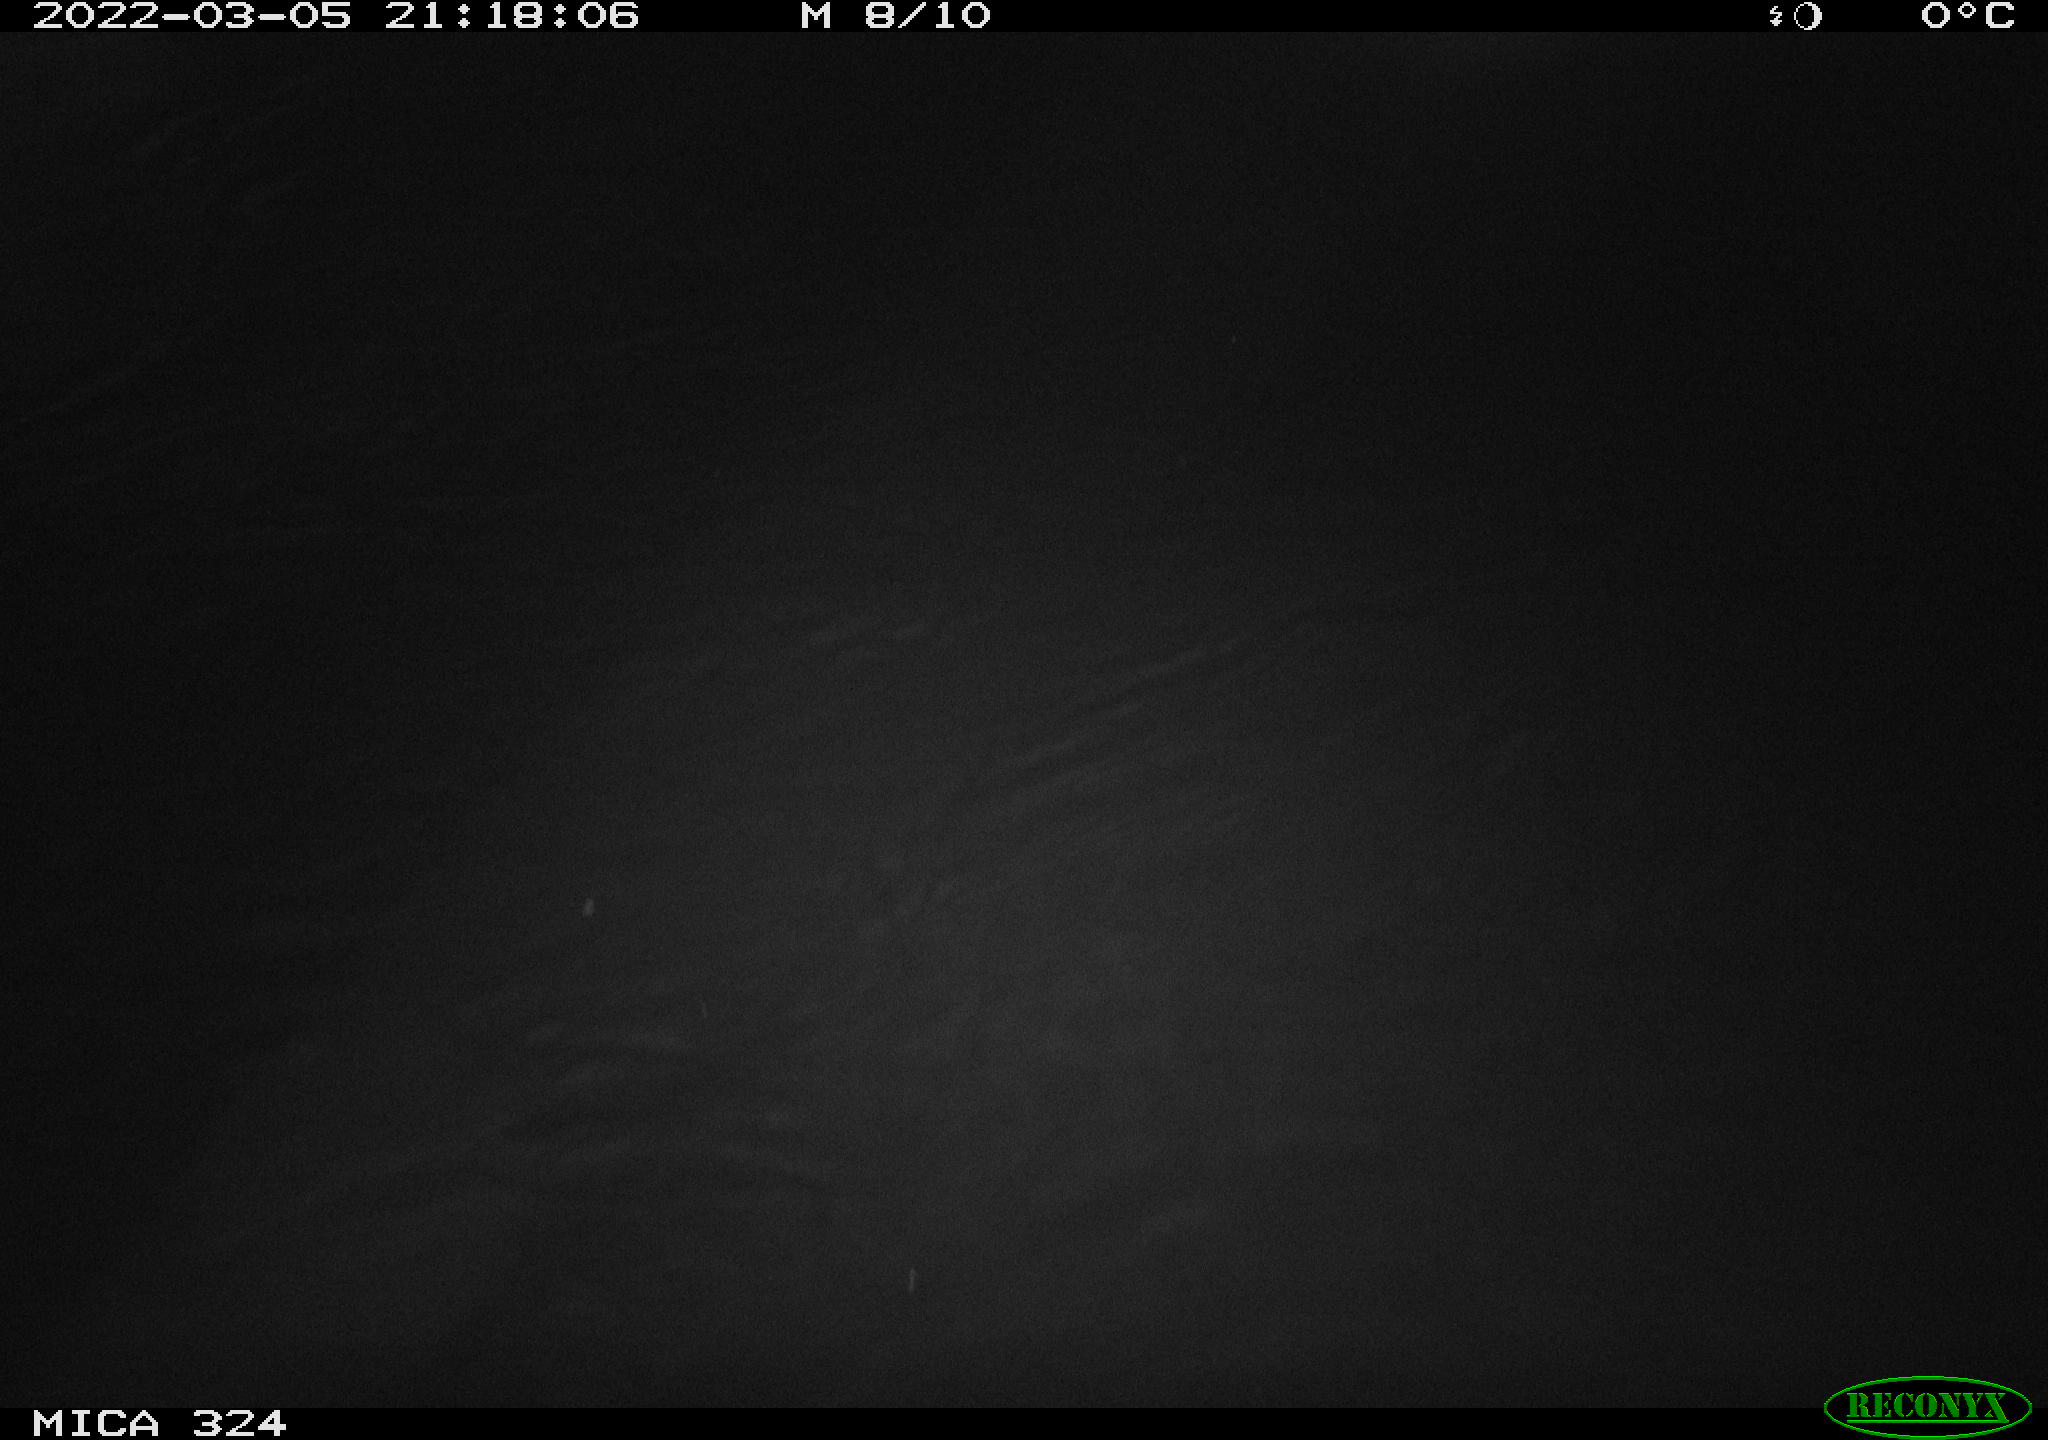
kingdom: Animalia
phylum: Chordata
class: Mammalia
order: Rodentia
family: Cricetidae
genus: Ondatra
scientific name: Ondatra zibethicus
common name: Muskrat
